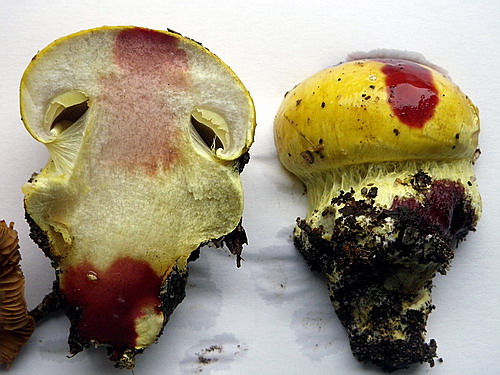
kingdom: Fungi
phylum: Basidiomycota
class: Agaricomycetes
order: Agaricales
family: Cortinariaceae
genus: Cortinarius
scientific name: Cortinarius bergeronii
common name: prægtig slørhat
